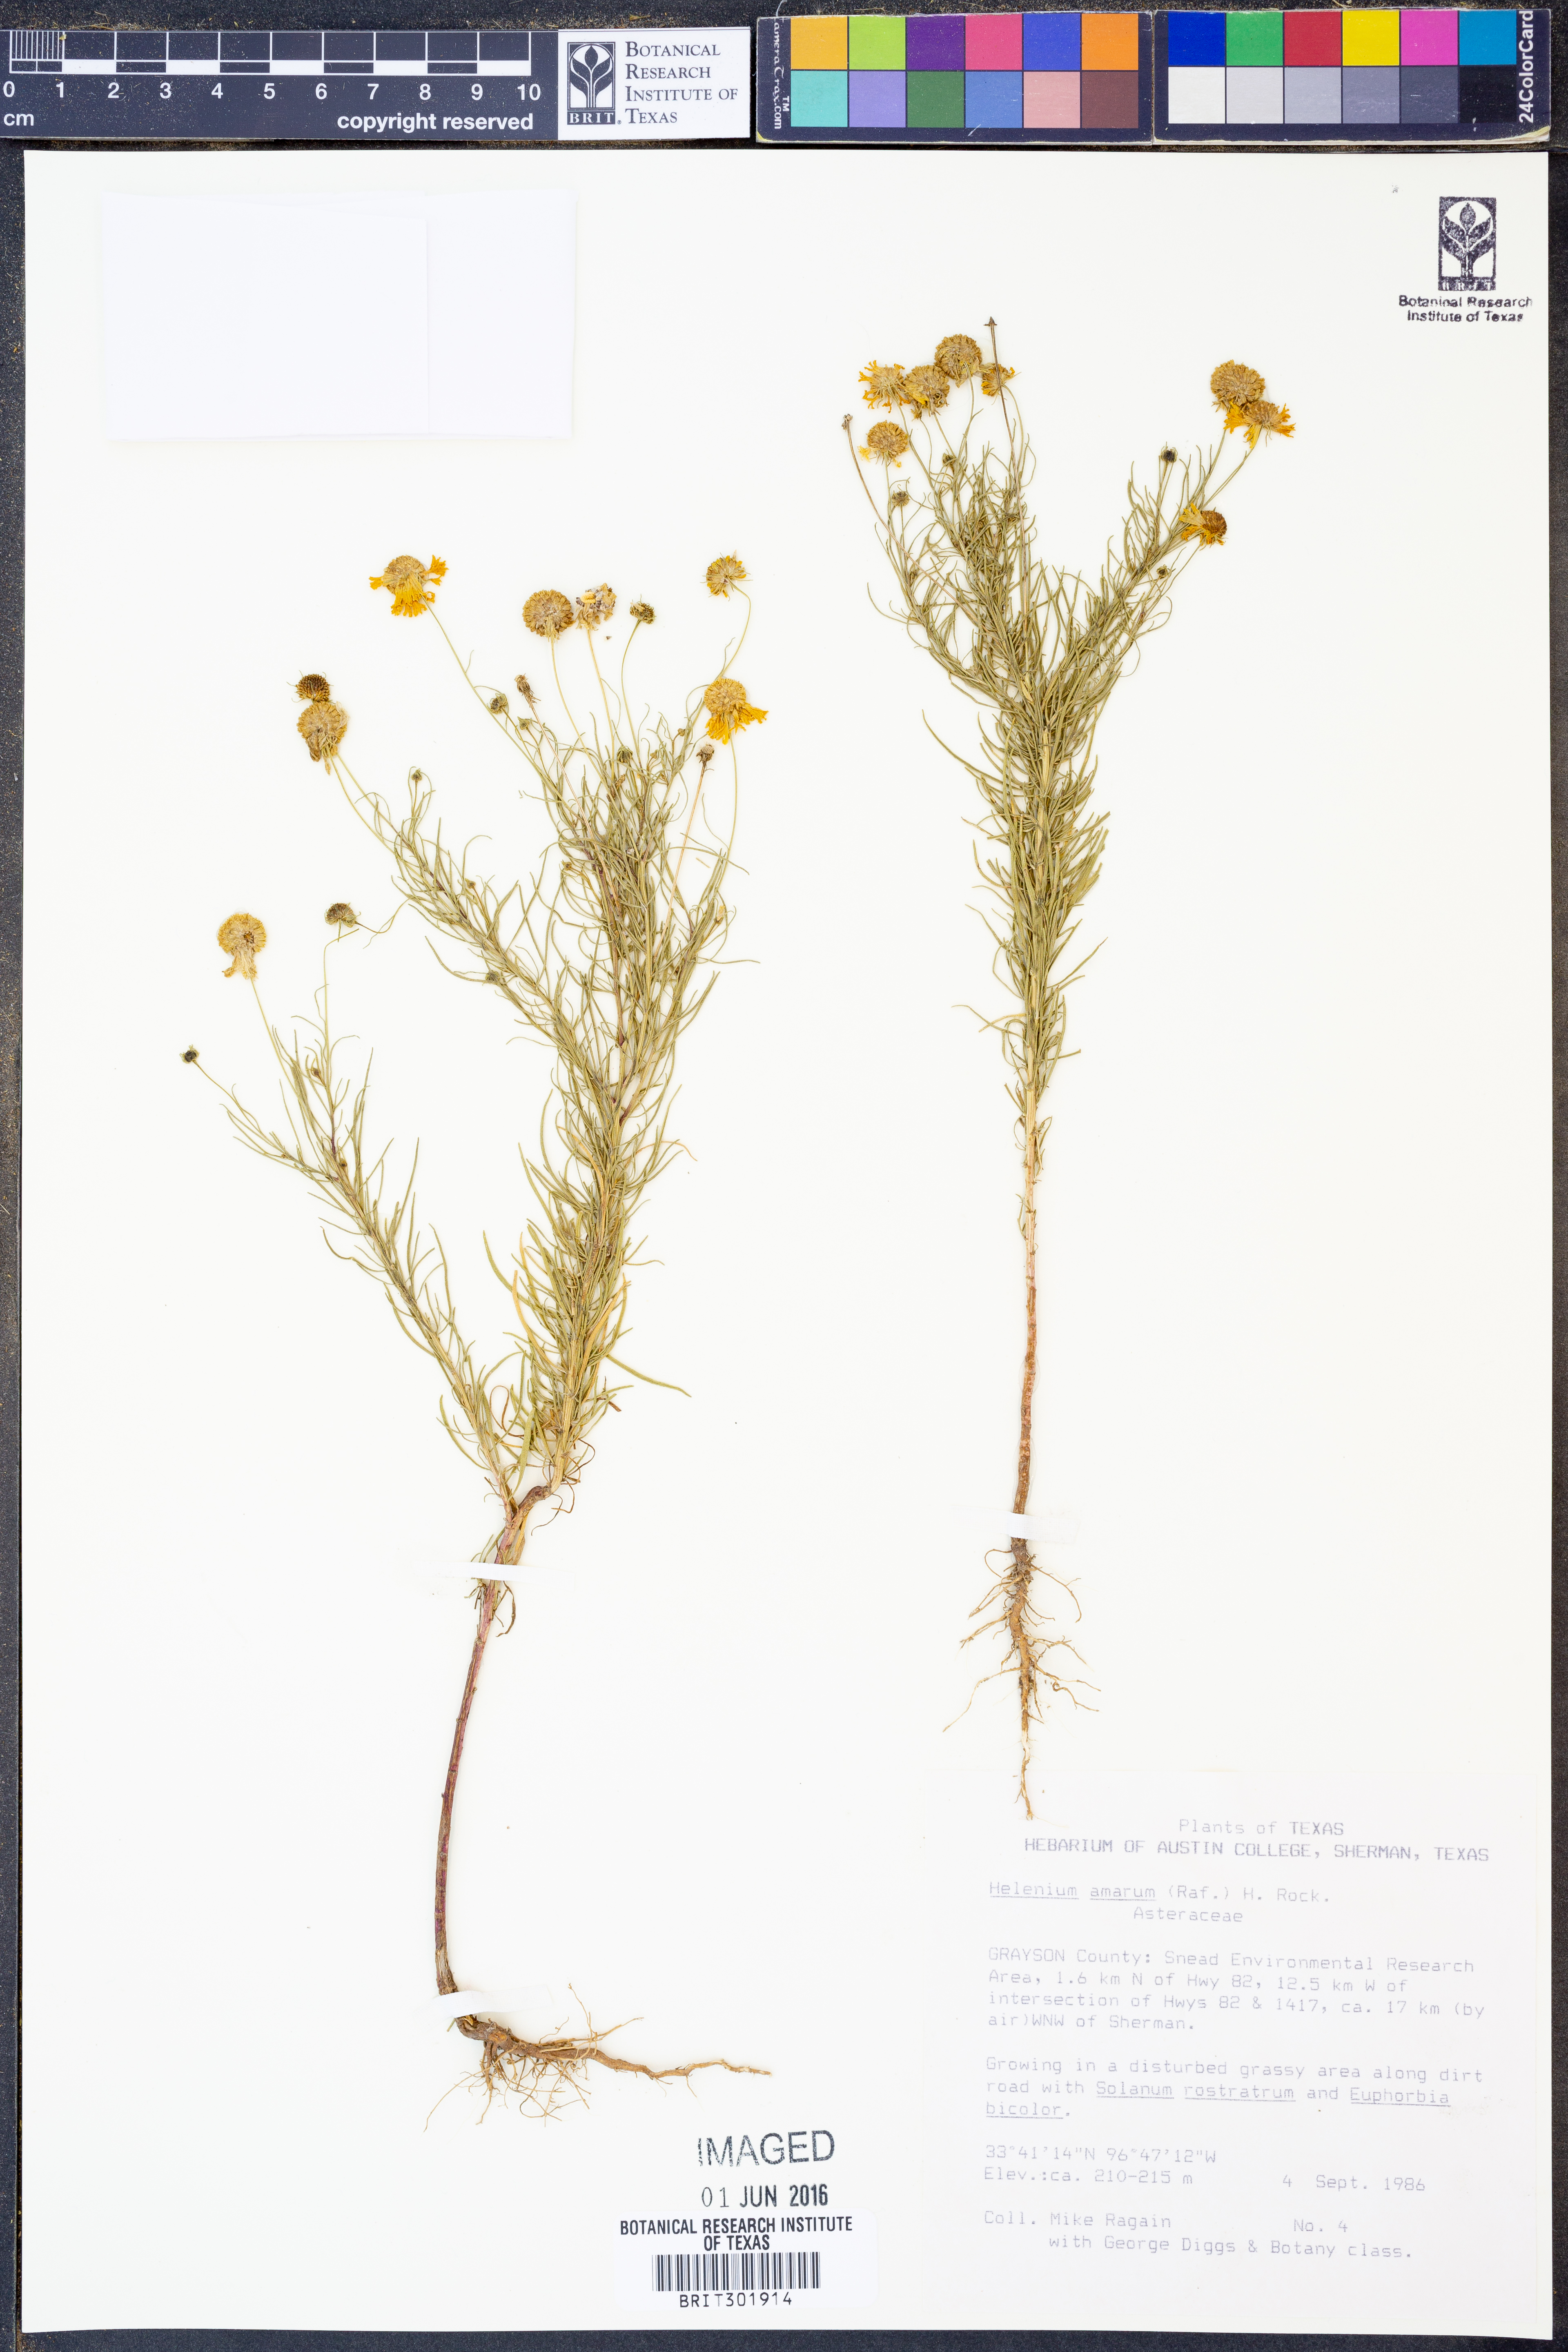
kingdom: Plantae
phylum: Tracheophyta
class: Magnoliopsida
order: Asterales
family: Asteraceae
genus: Helenium
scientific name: Helenium amarum
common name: Bitter sneezeweed
